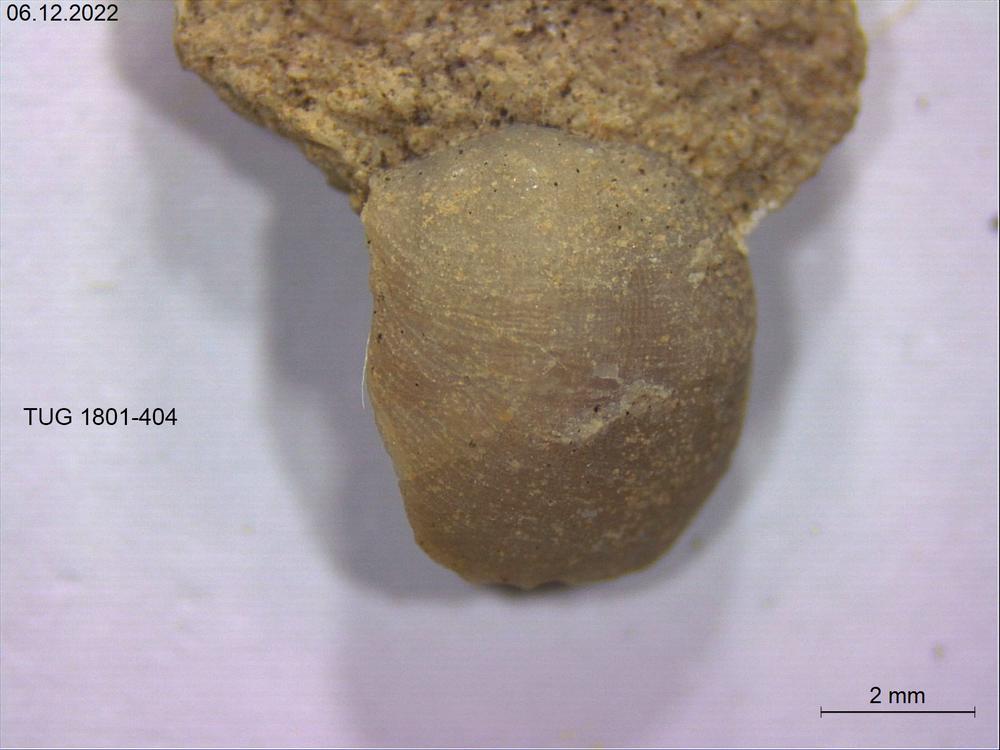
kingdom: Animalia
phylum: Brachiopoda
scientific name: Brachiopoda
